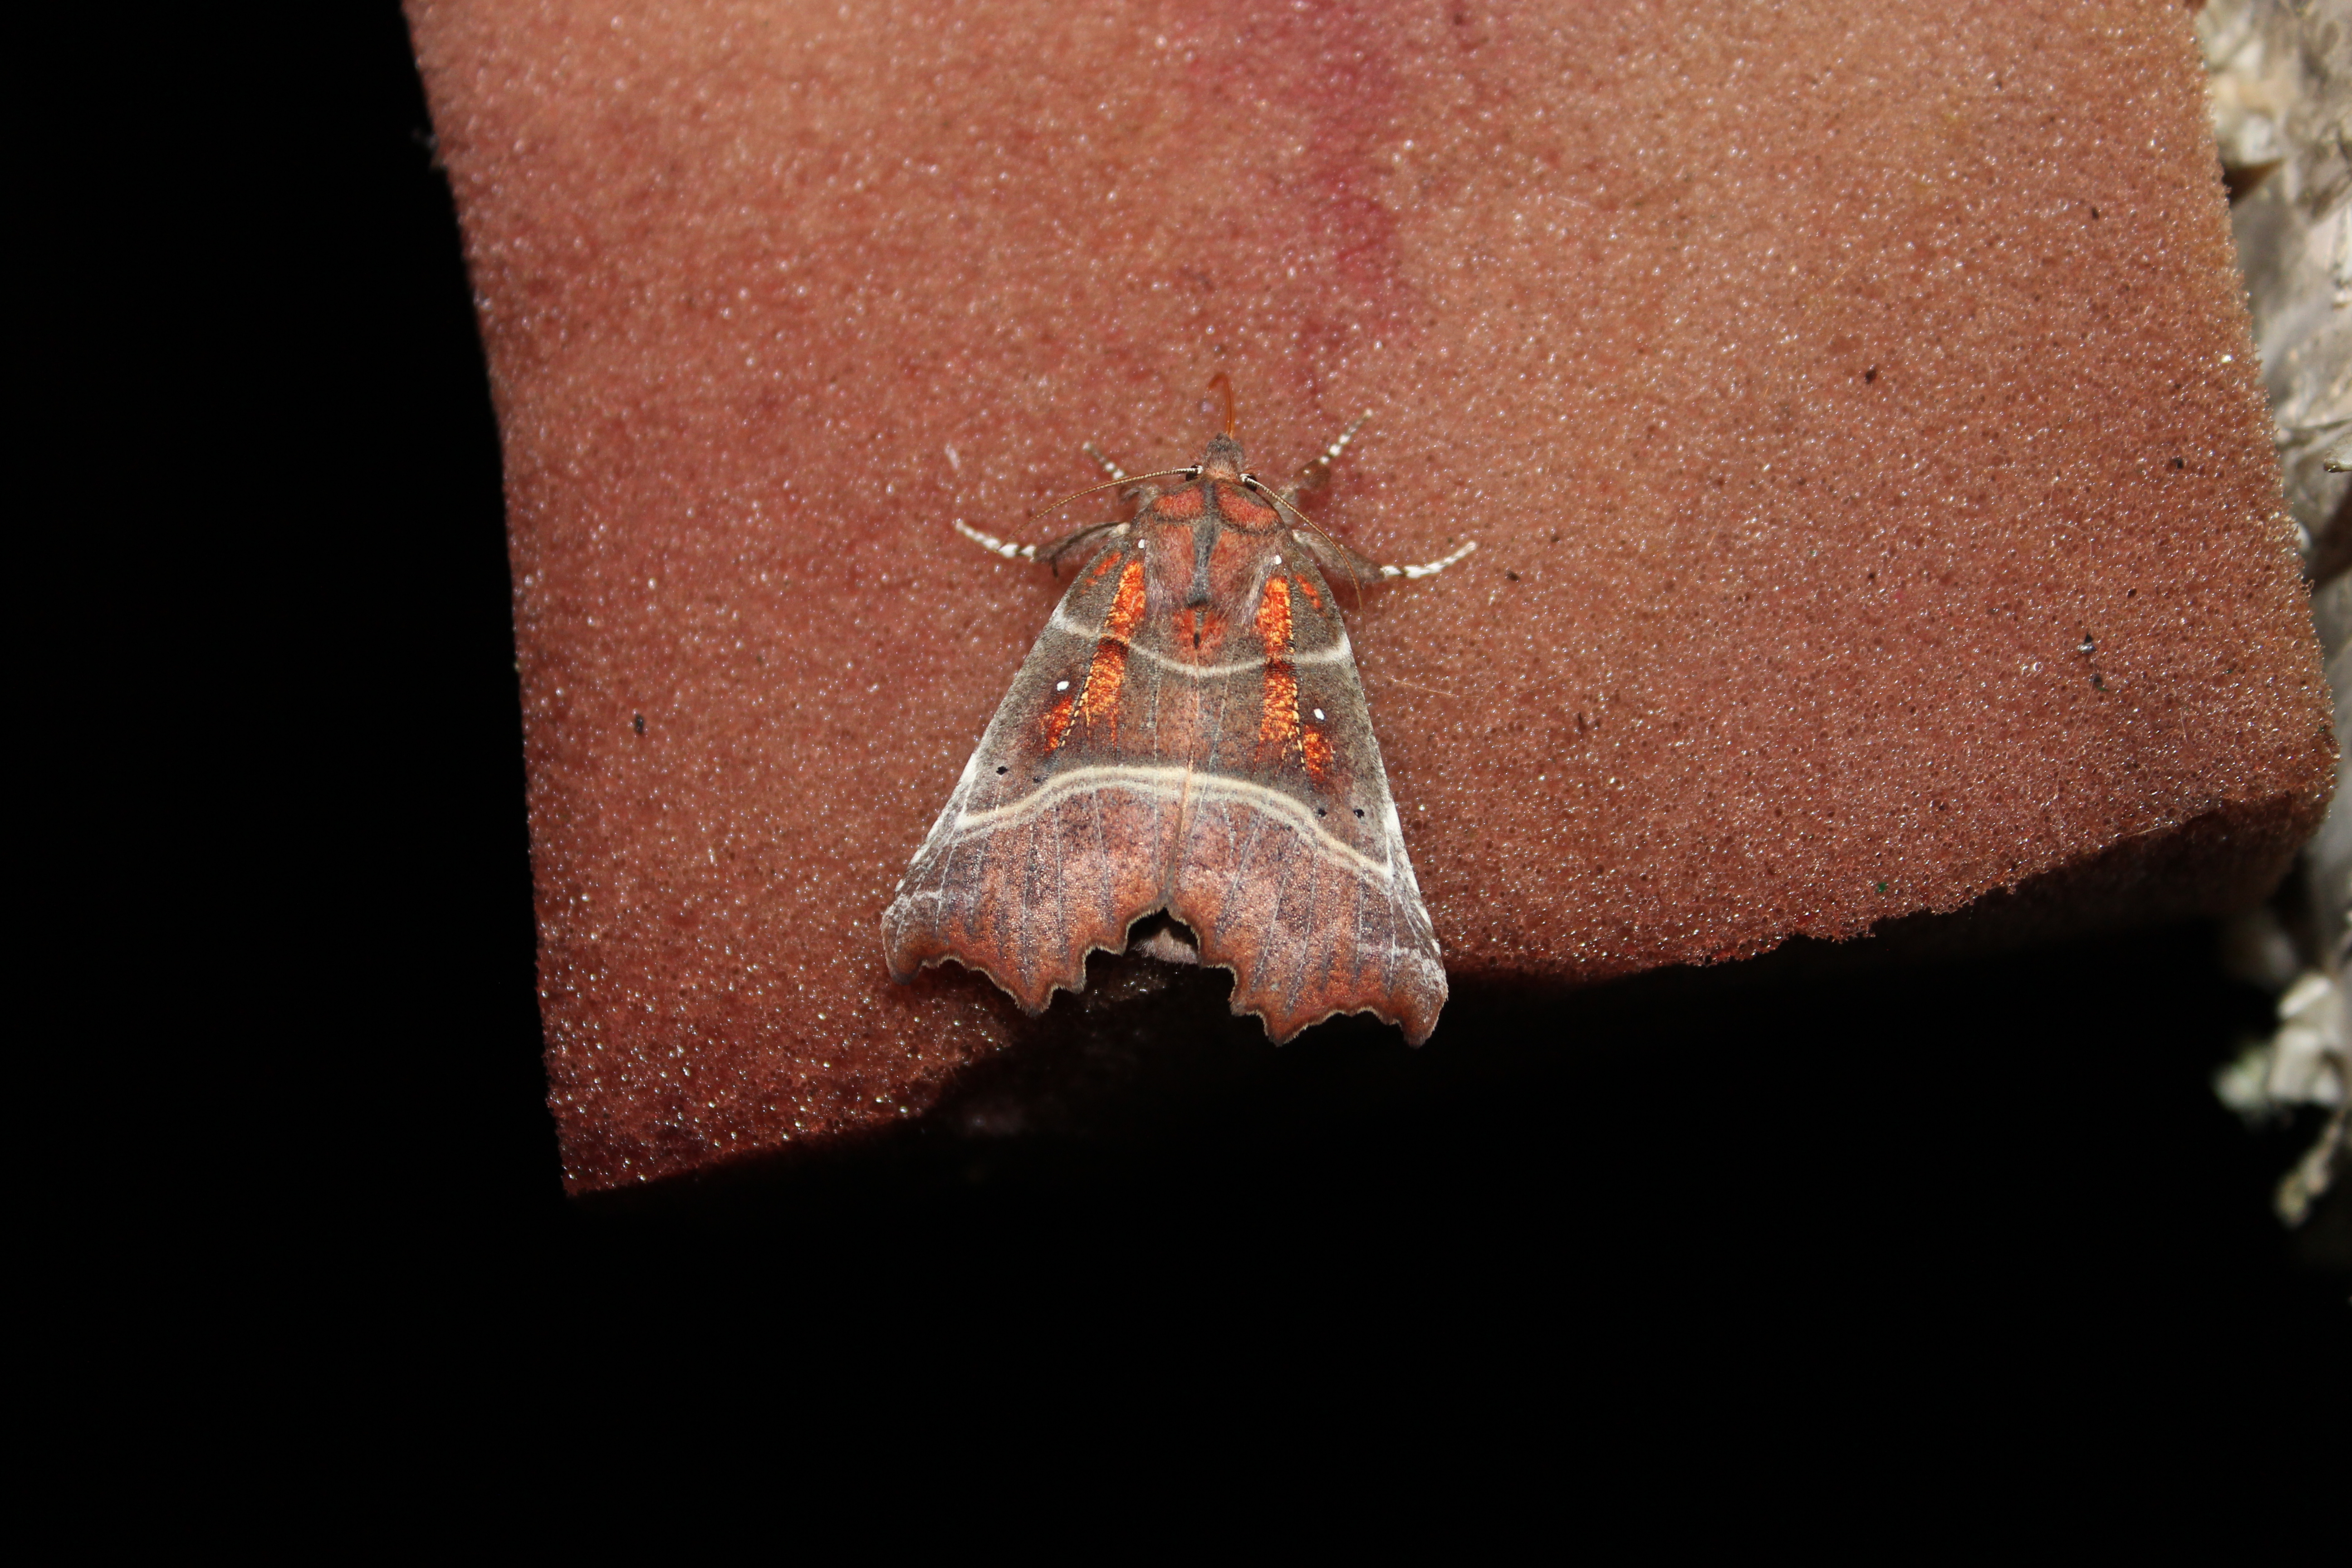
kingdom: Animalia
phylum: Arthropoda
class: Insecta
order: Lepidoptera
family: Erebidae
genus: Scoliopteryx
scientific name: Scoliopteryx libatrix
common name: Herald
